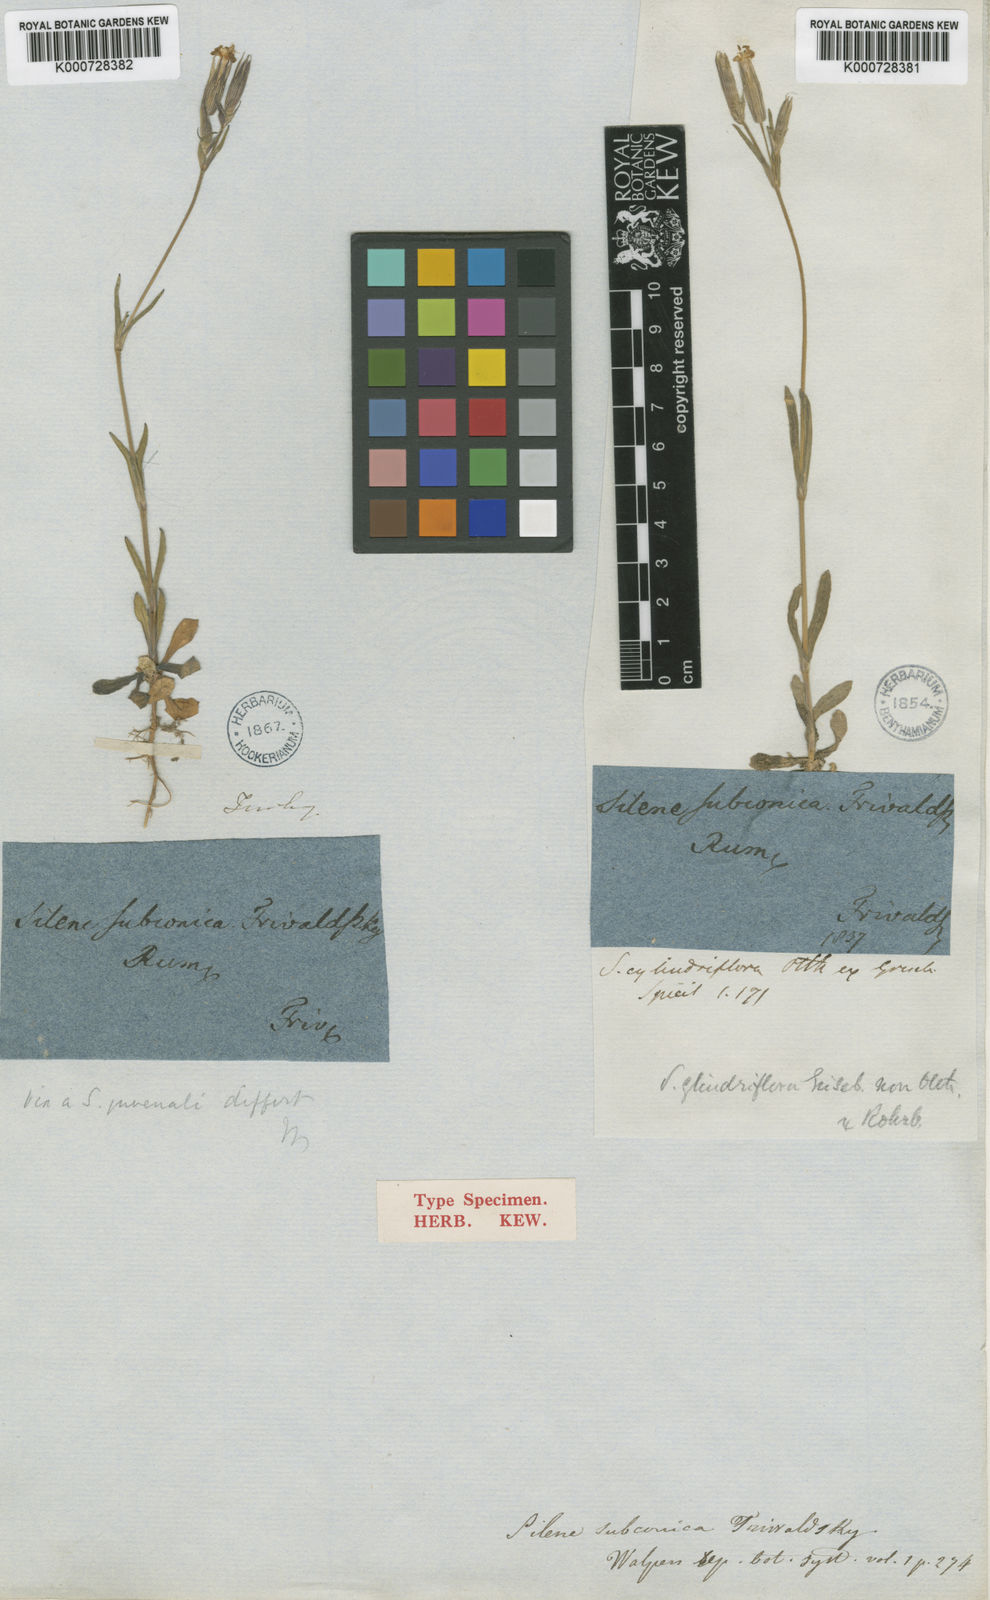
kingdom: Plantae
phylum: Tracheophyta
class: Magnoliopsida
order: Caryophyllales
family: Caryophyllaceae
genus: Silene
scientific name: Silene conica
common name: Sand catchfly
